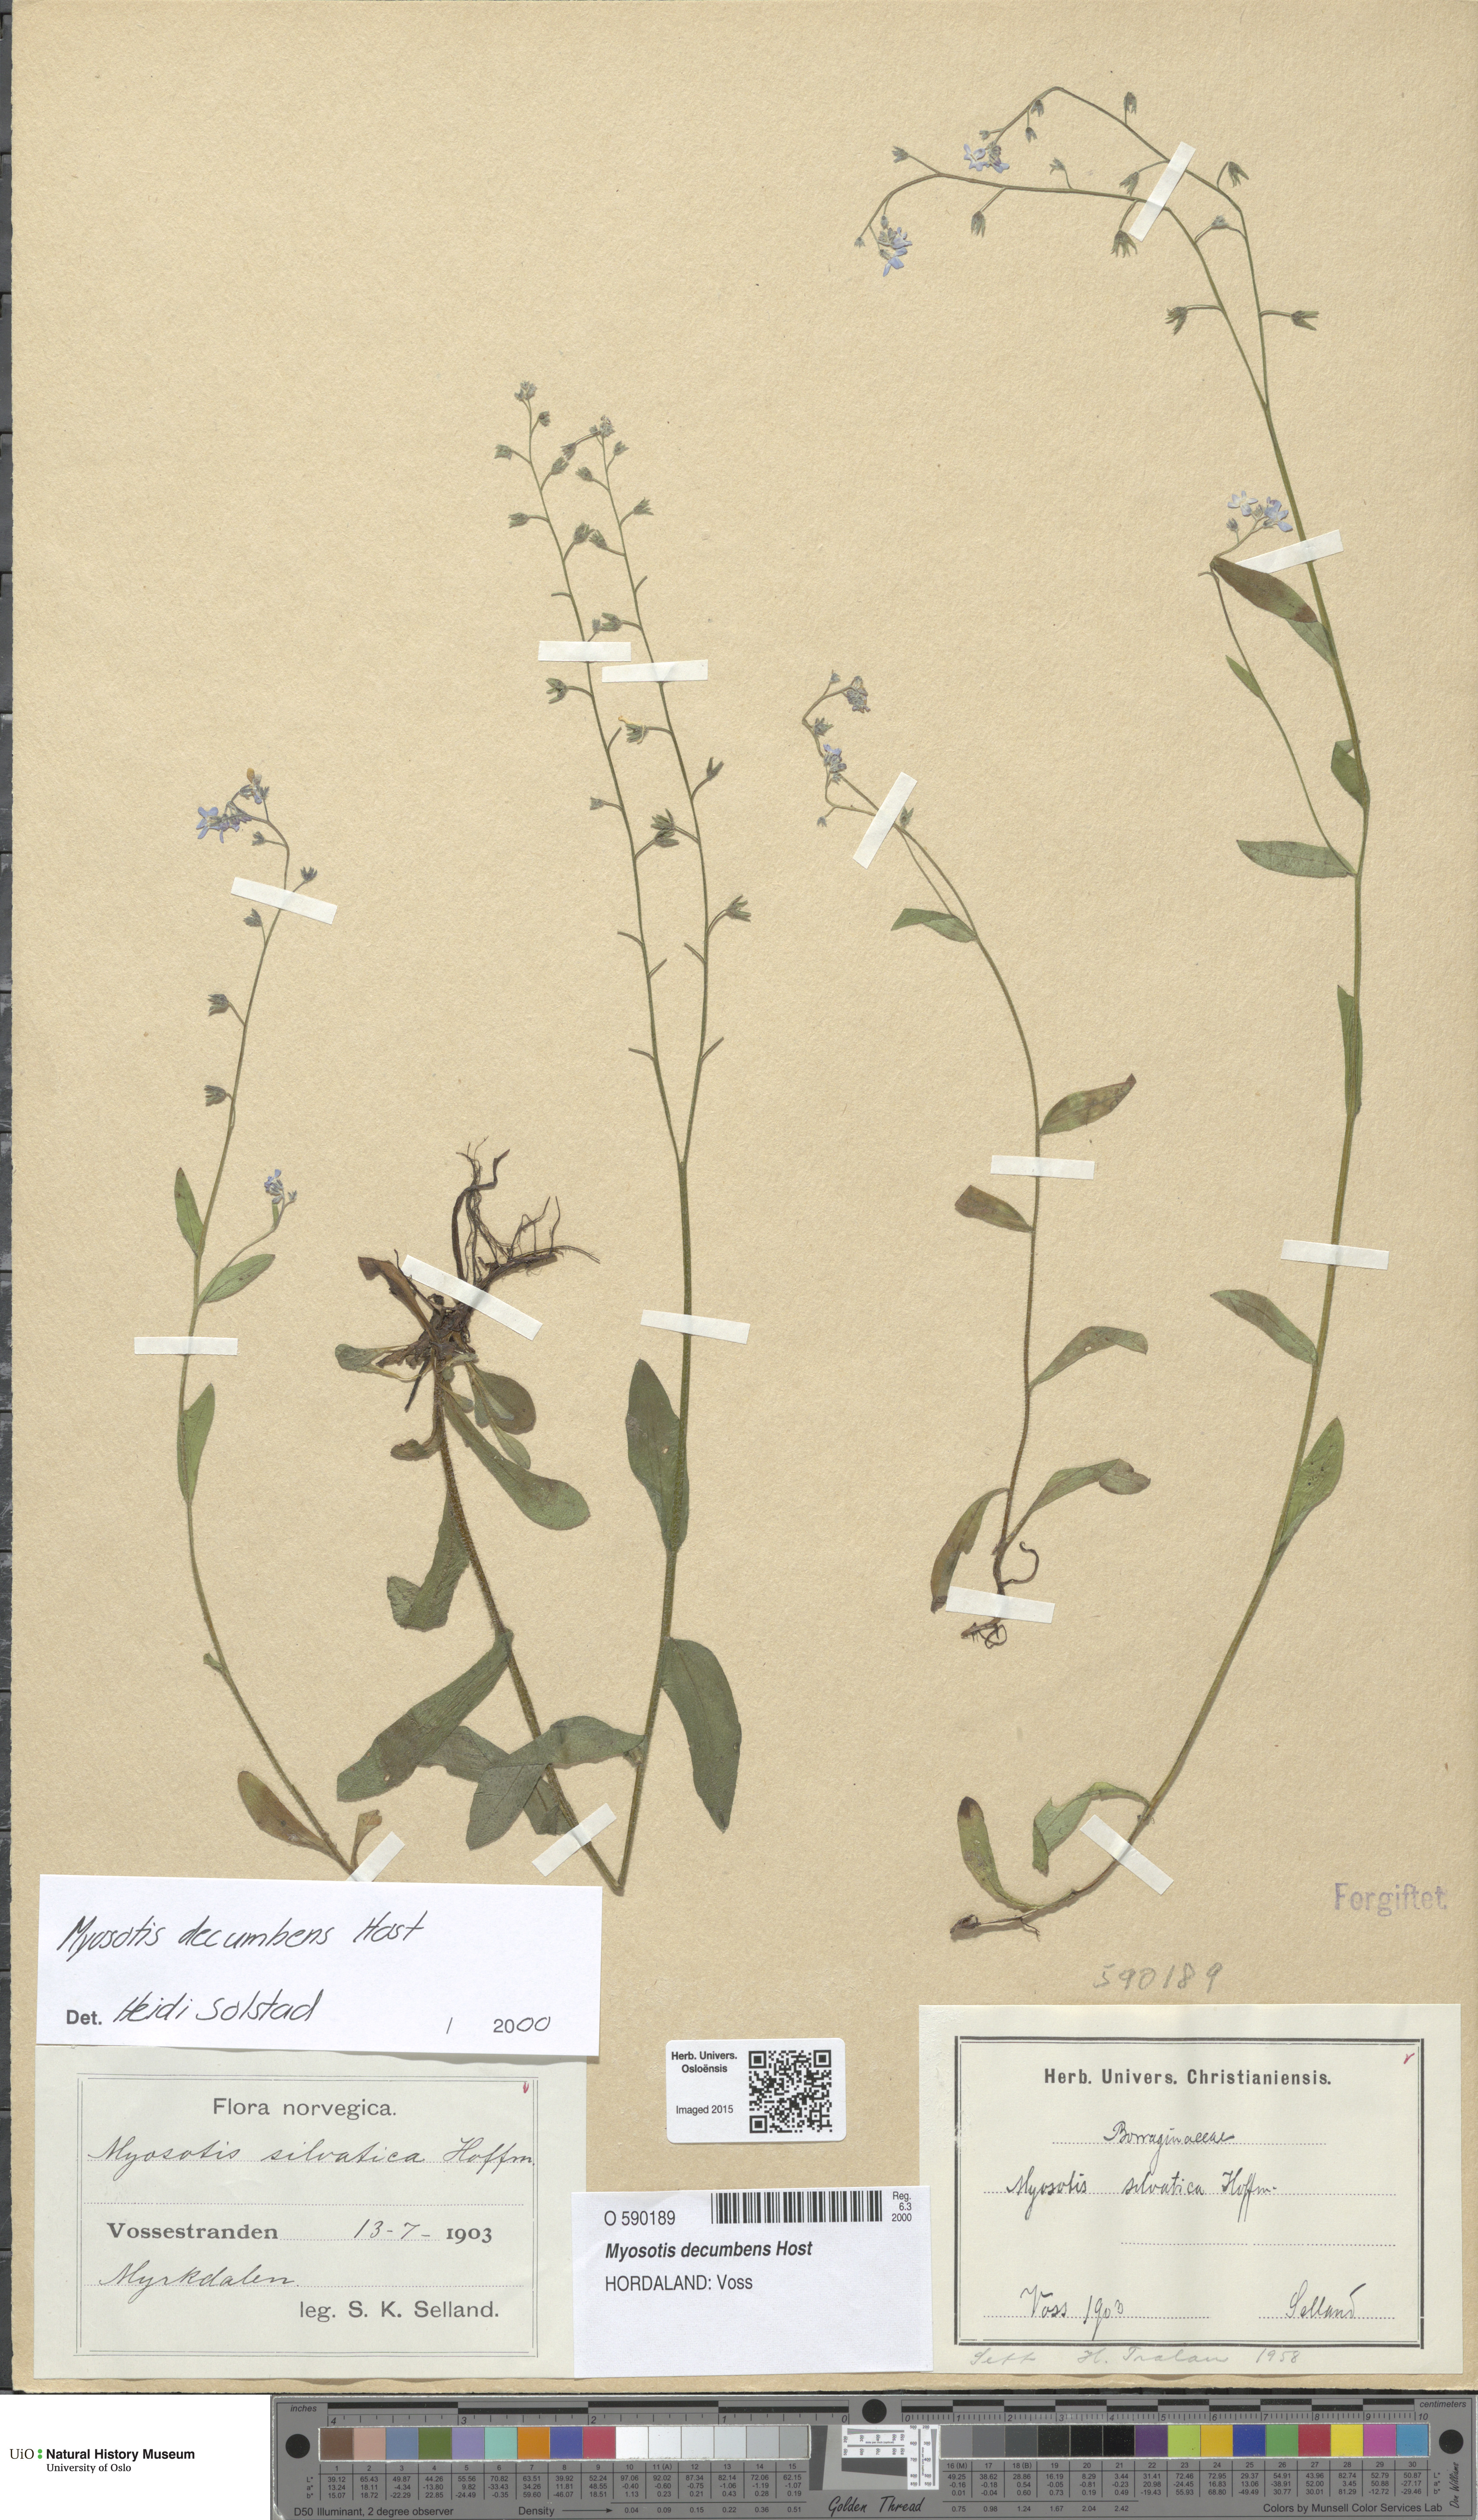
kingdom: Plantae
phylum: Tracheophyta
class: Magnoliopsida
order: Boraginales
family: Boraginaceae
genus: Myosotis
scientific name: Myosotis decumbens
